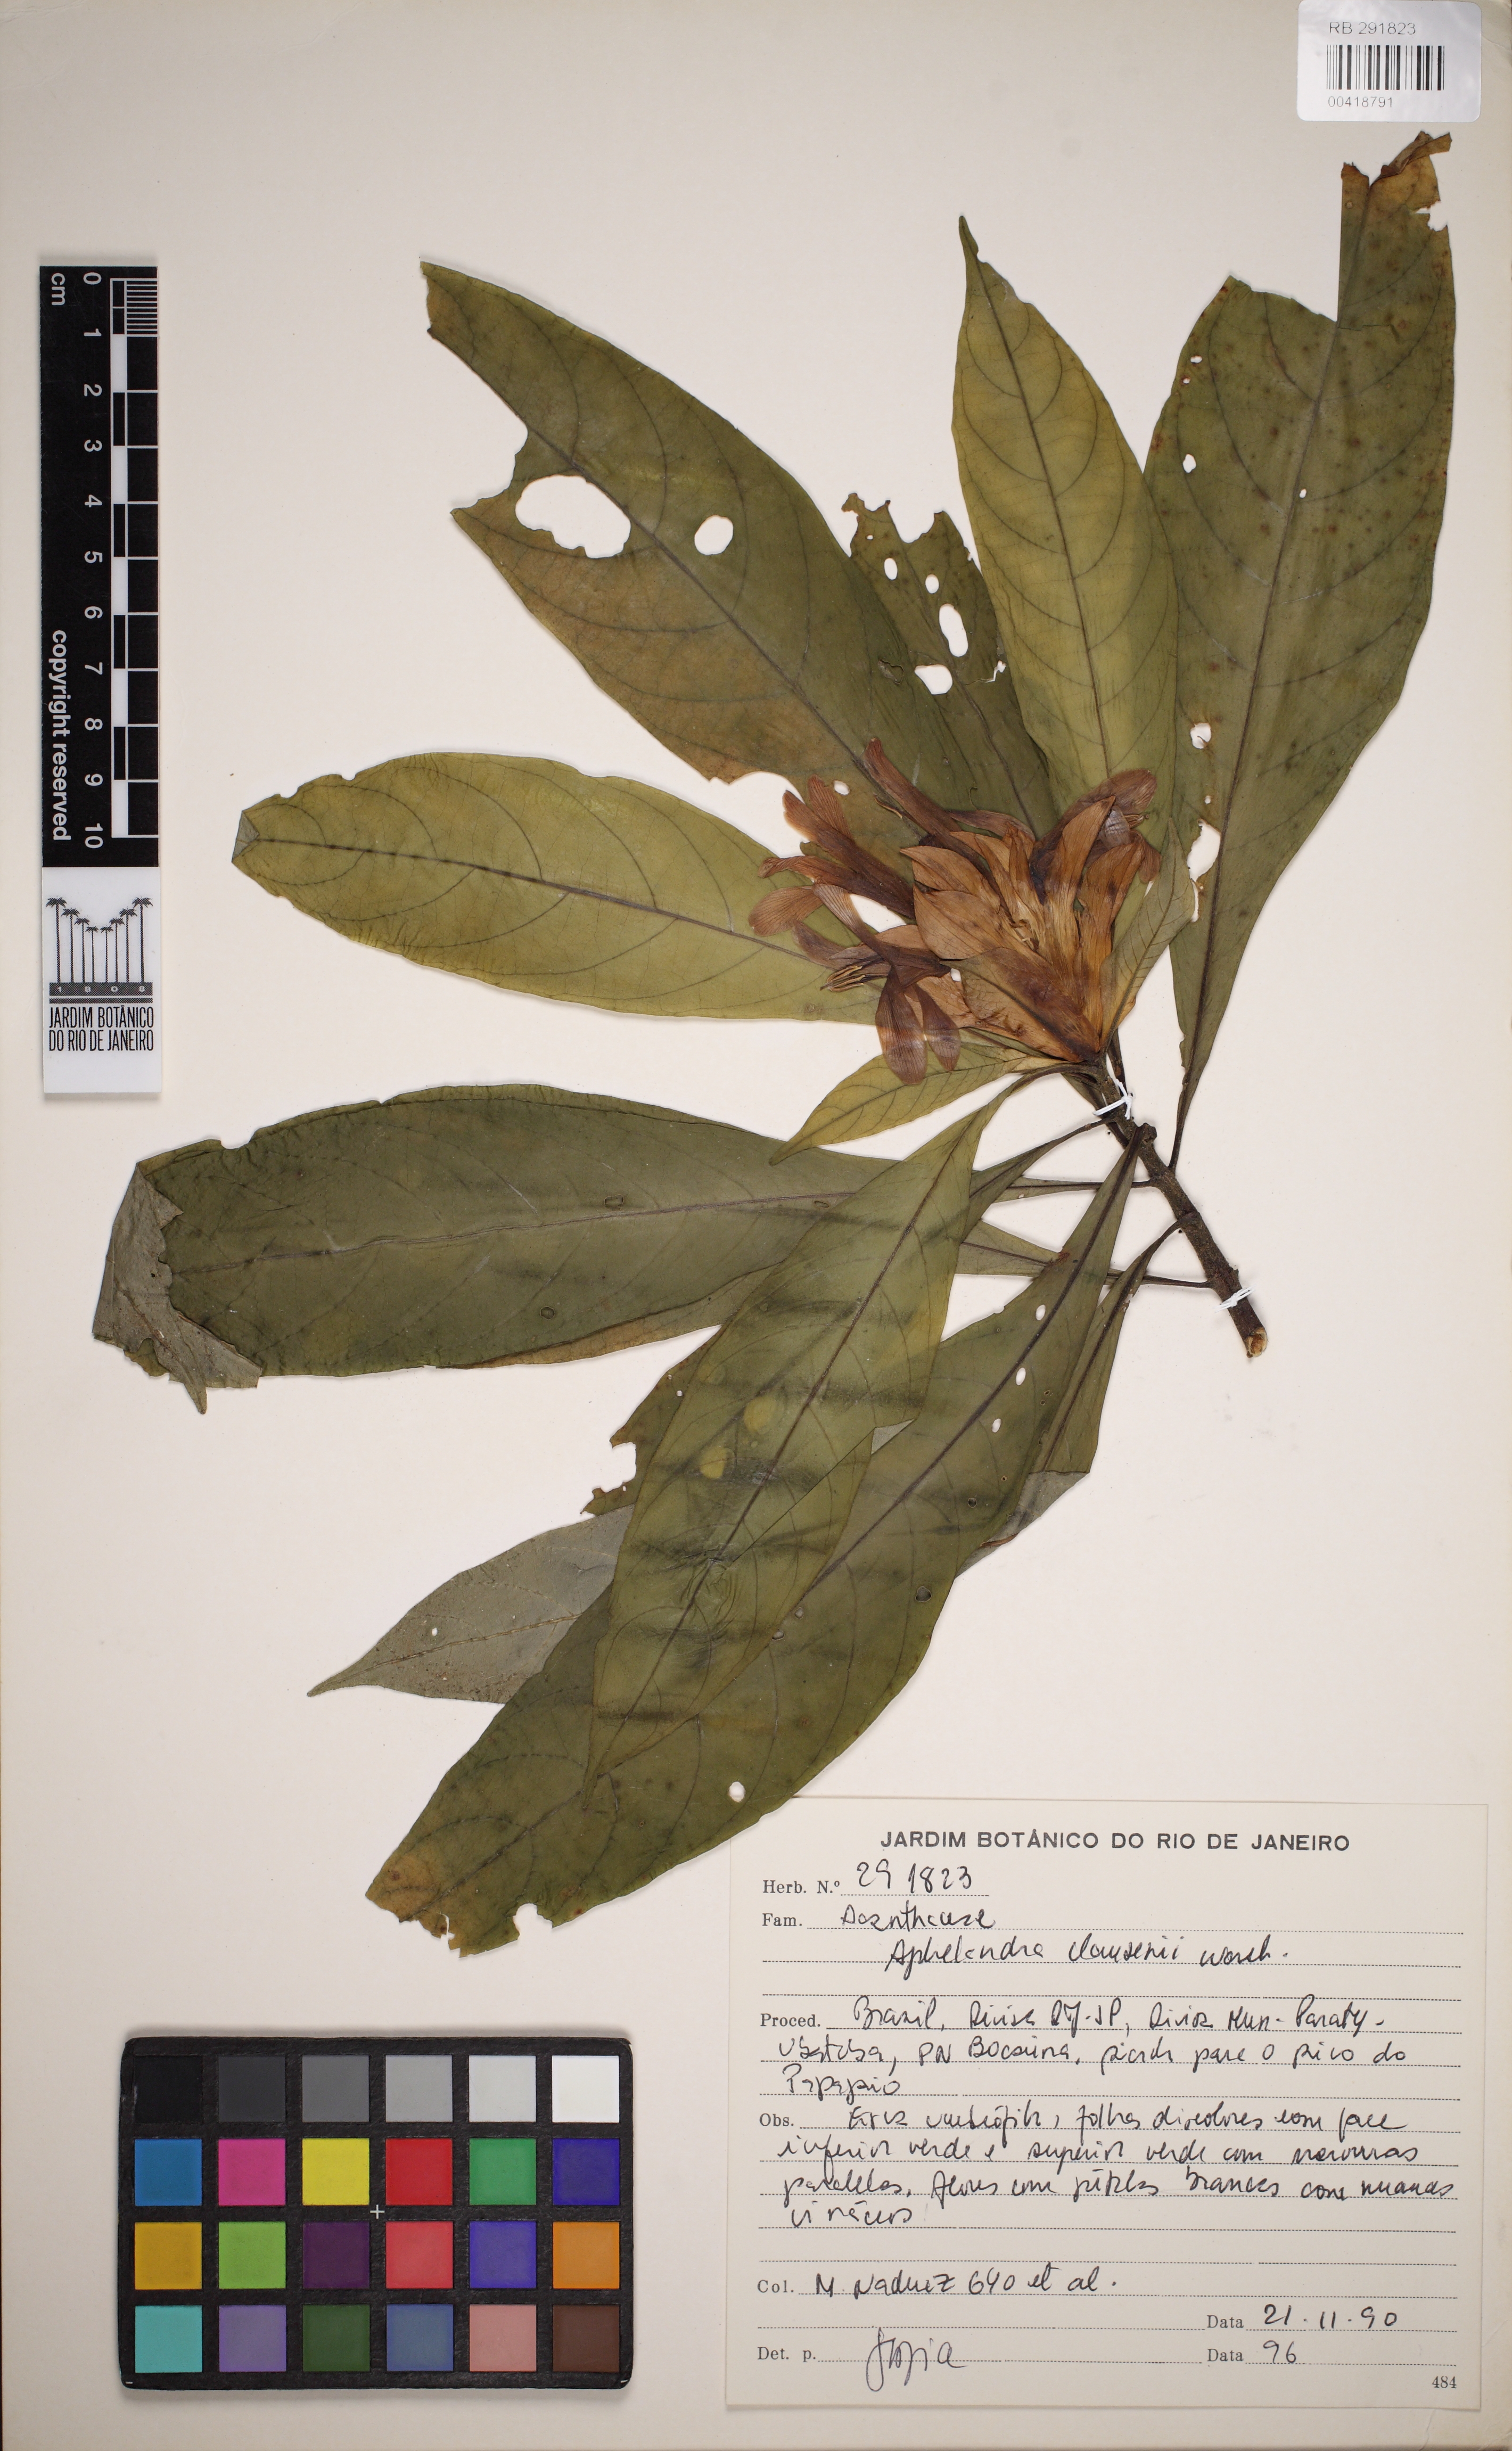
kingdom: Plantae
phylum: Tracheophyta
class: Magnoliopsida
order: Lamiales
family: Acanthaceae
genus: Aphelandra
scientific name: Aphelandra claussenii
